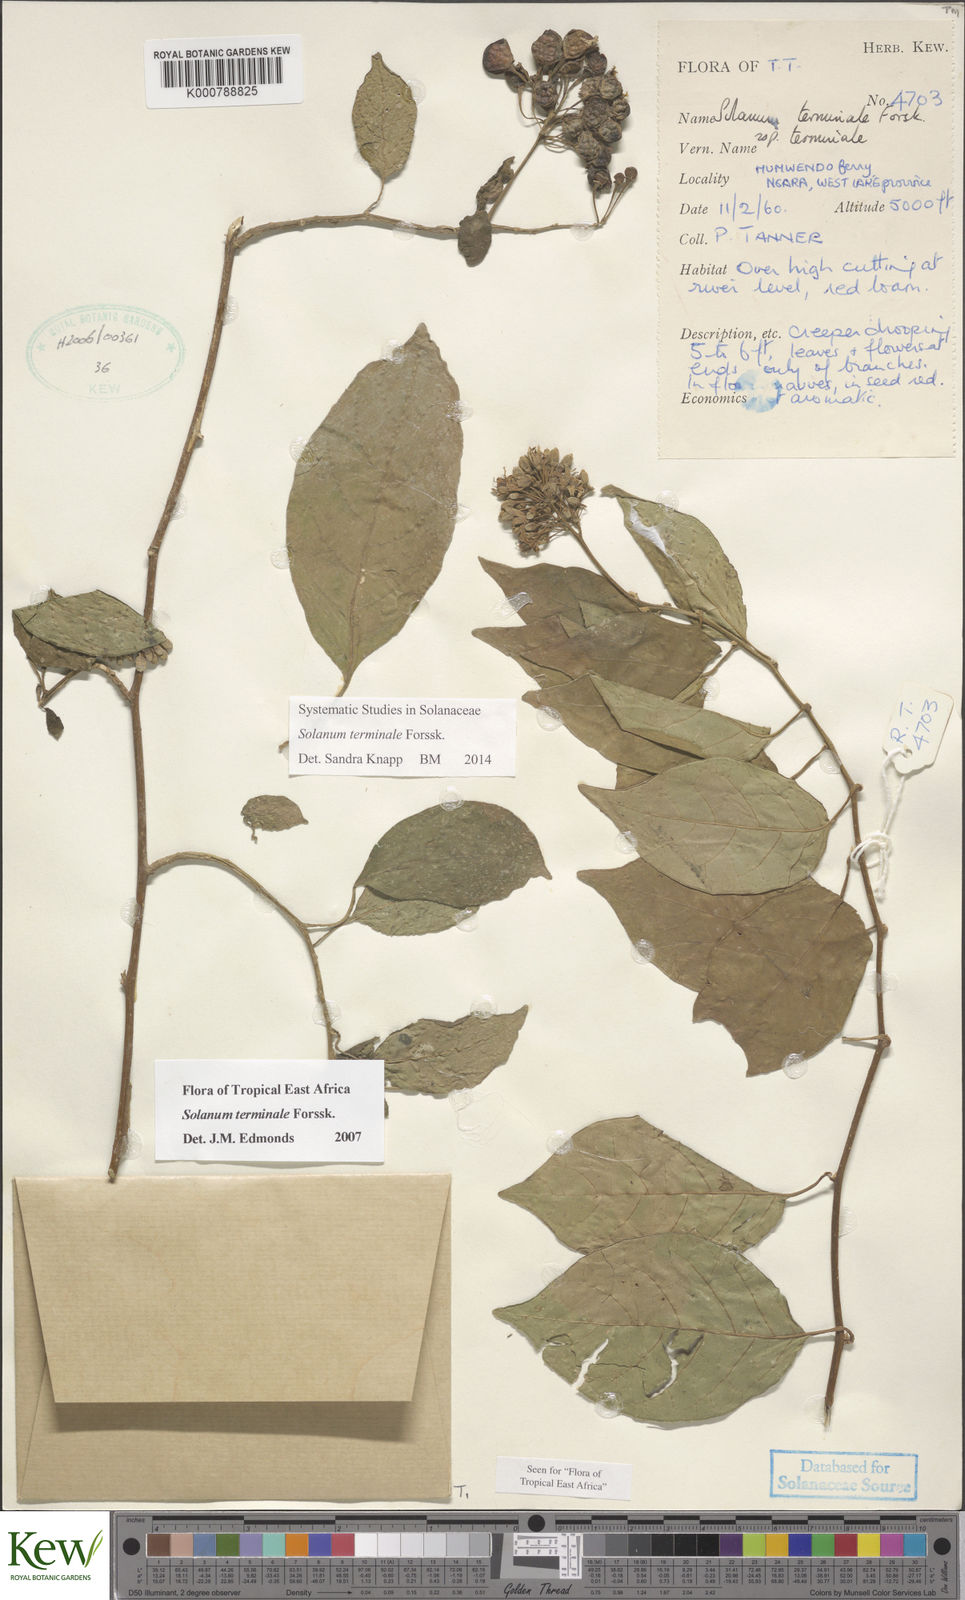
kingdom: Plantae
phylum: Tracheophyta
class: Magnoliopsida
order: Solanales
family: Solanaceae
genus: Solanum
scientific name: Solanum terminale
